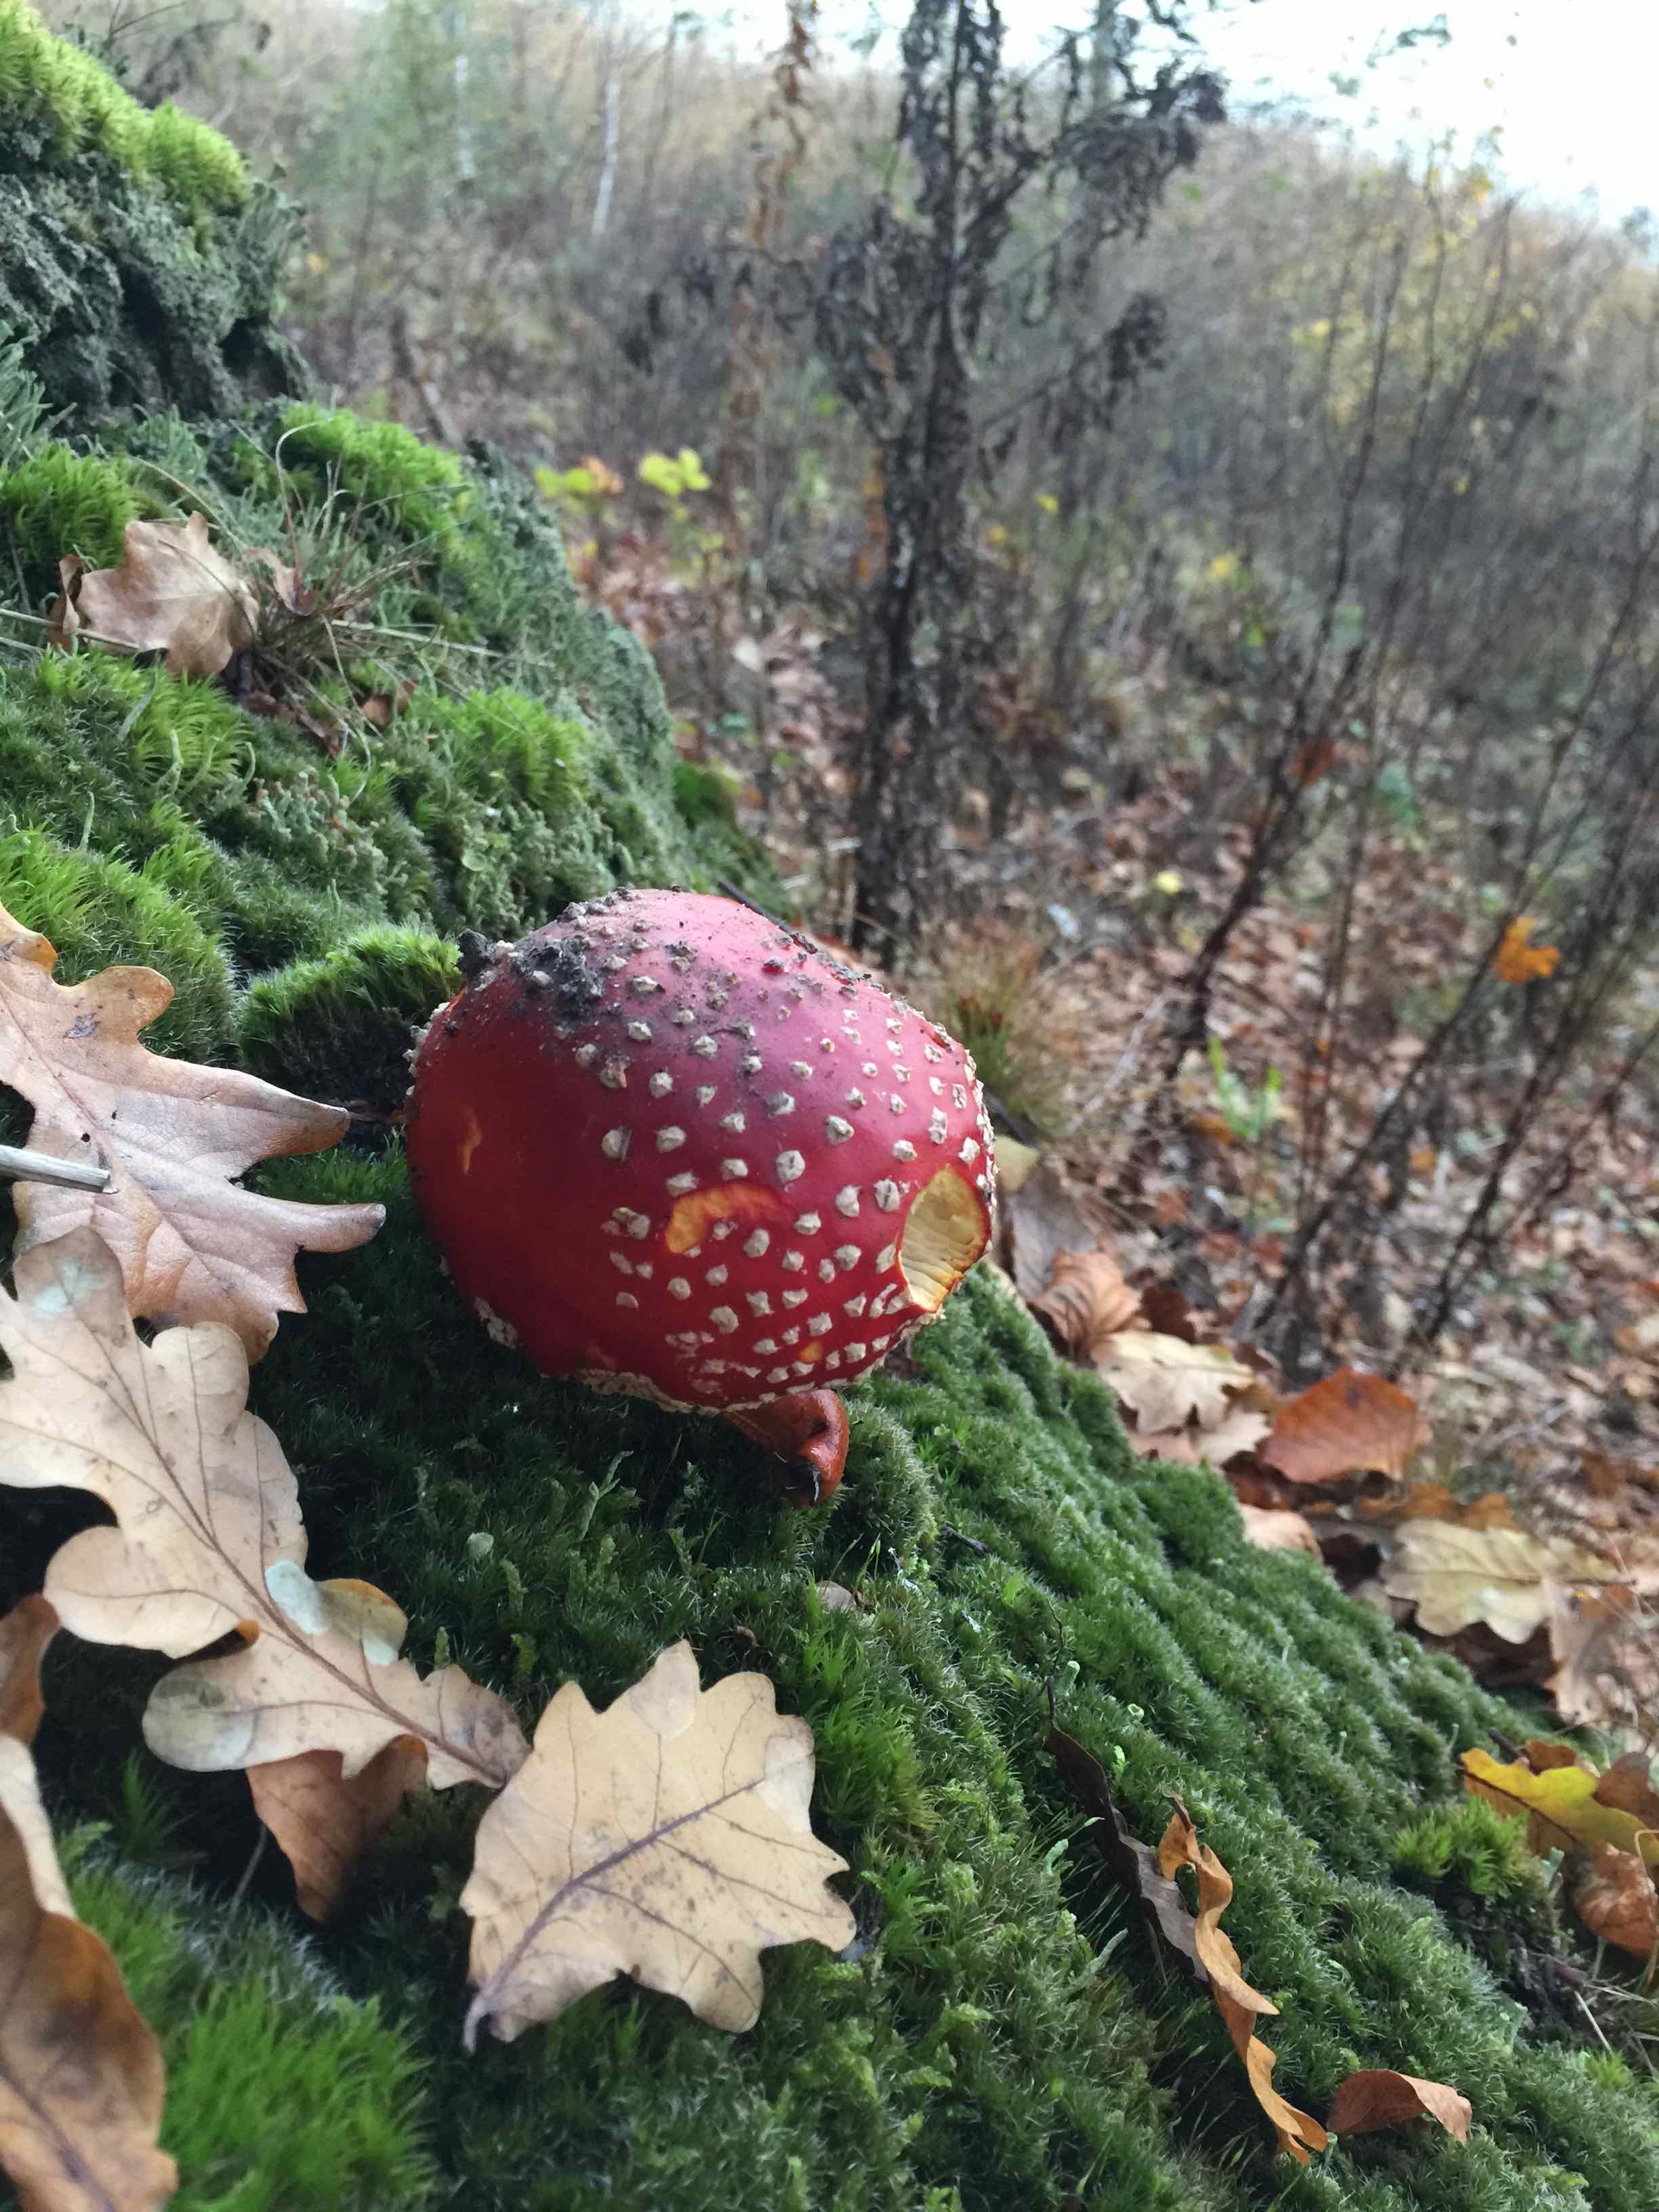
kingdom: Fungi
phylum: Basidiomycota
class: Agaricomycetes
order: Agaricales
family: Amanitaceae
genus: Amanita
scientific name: Amanita muscaria
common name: rød fluesvamp
